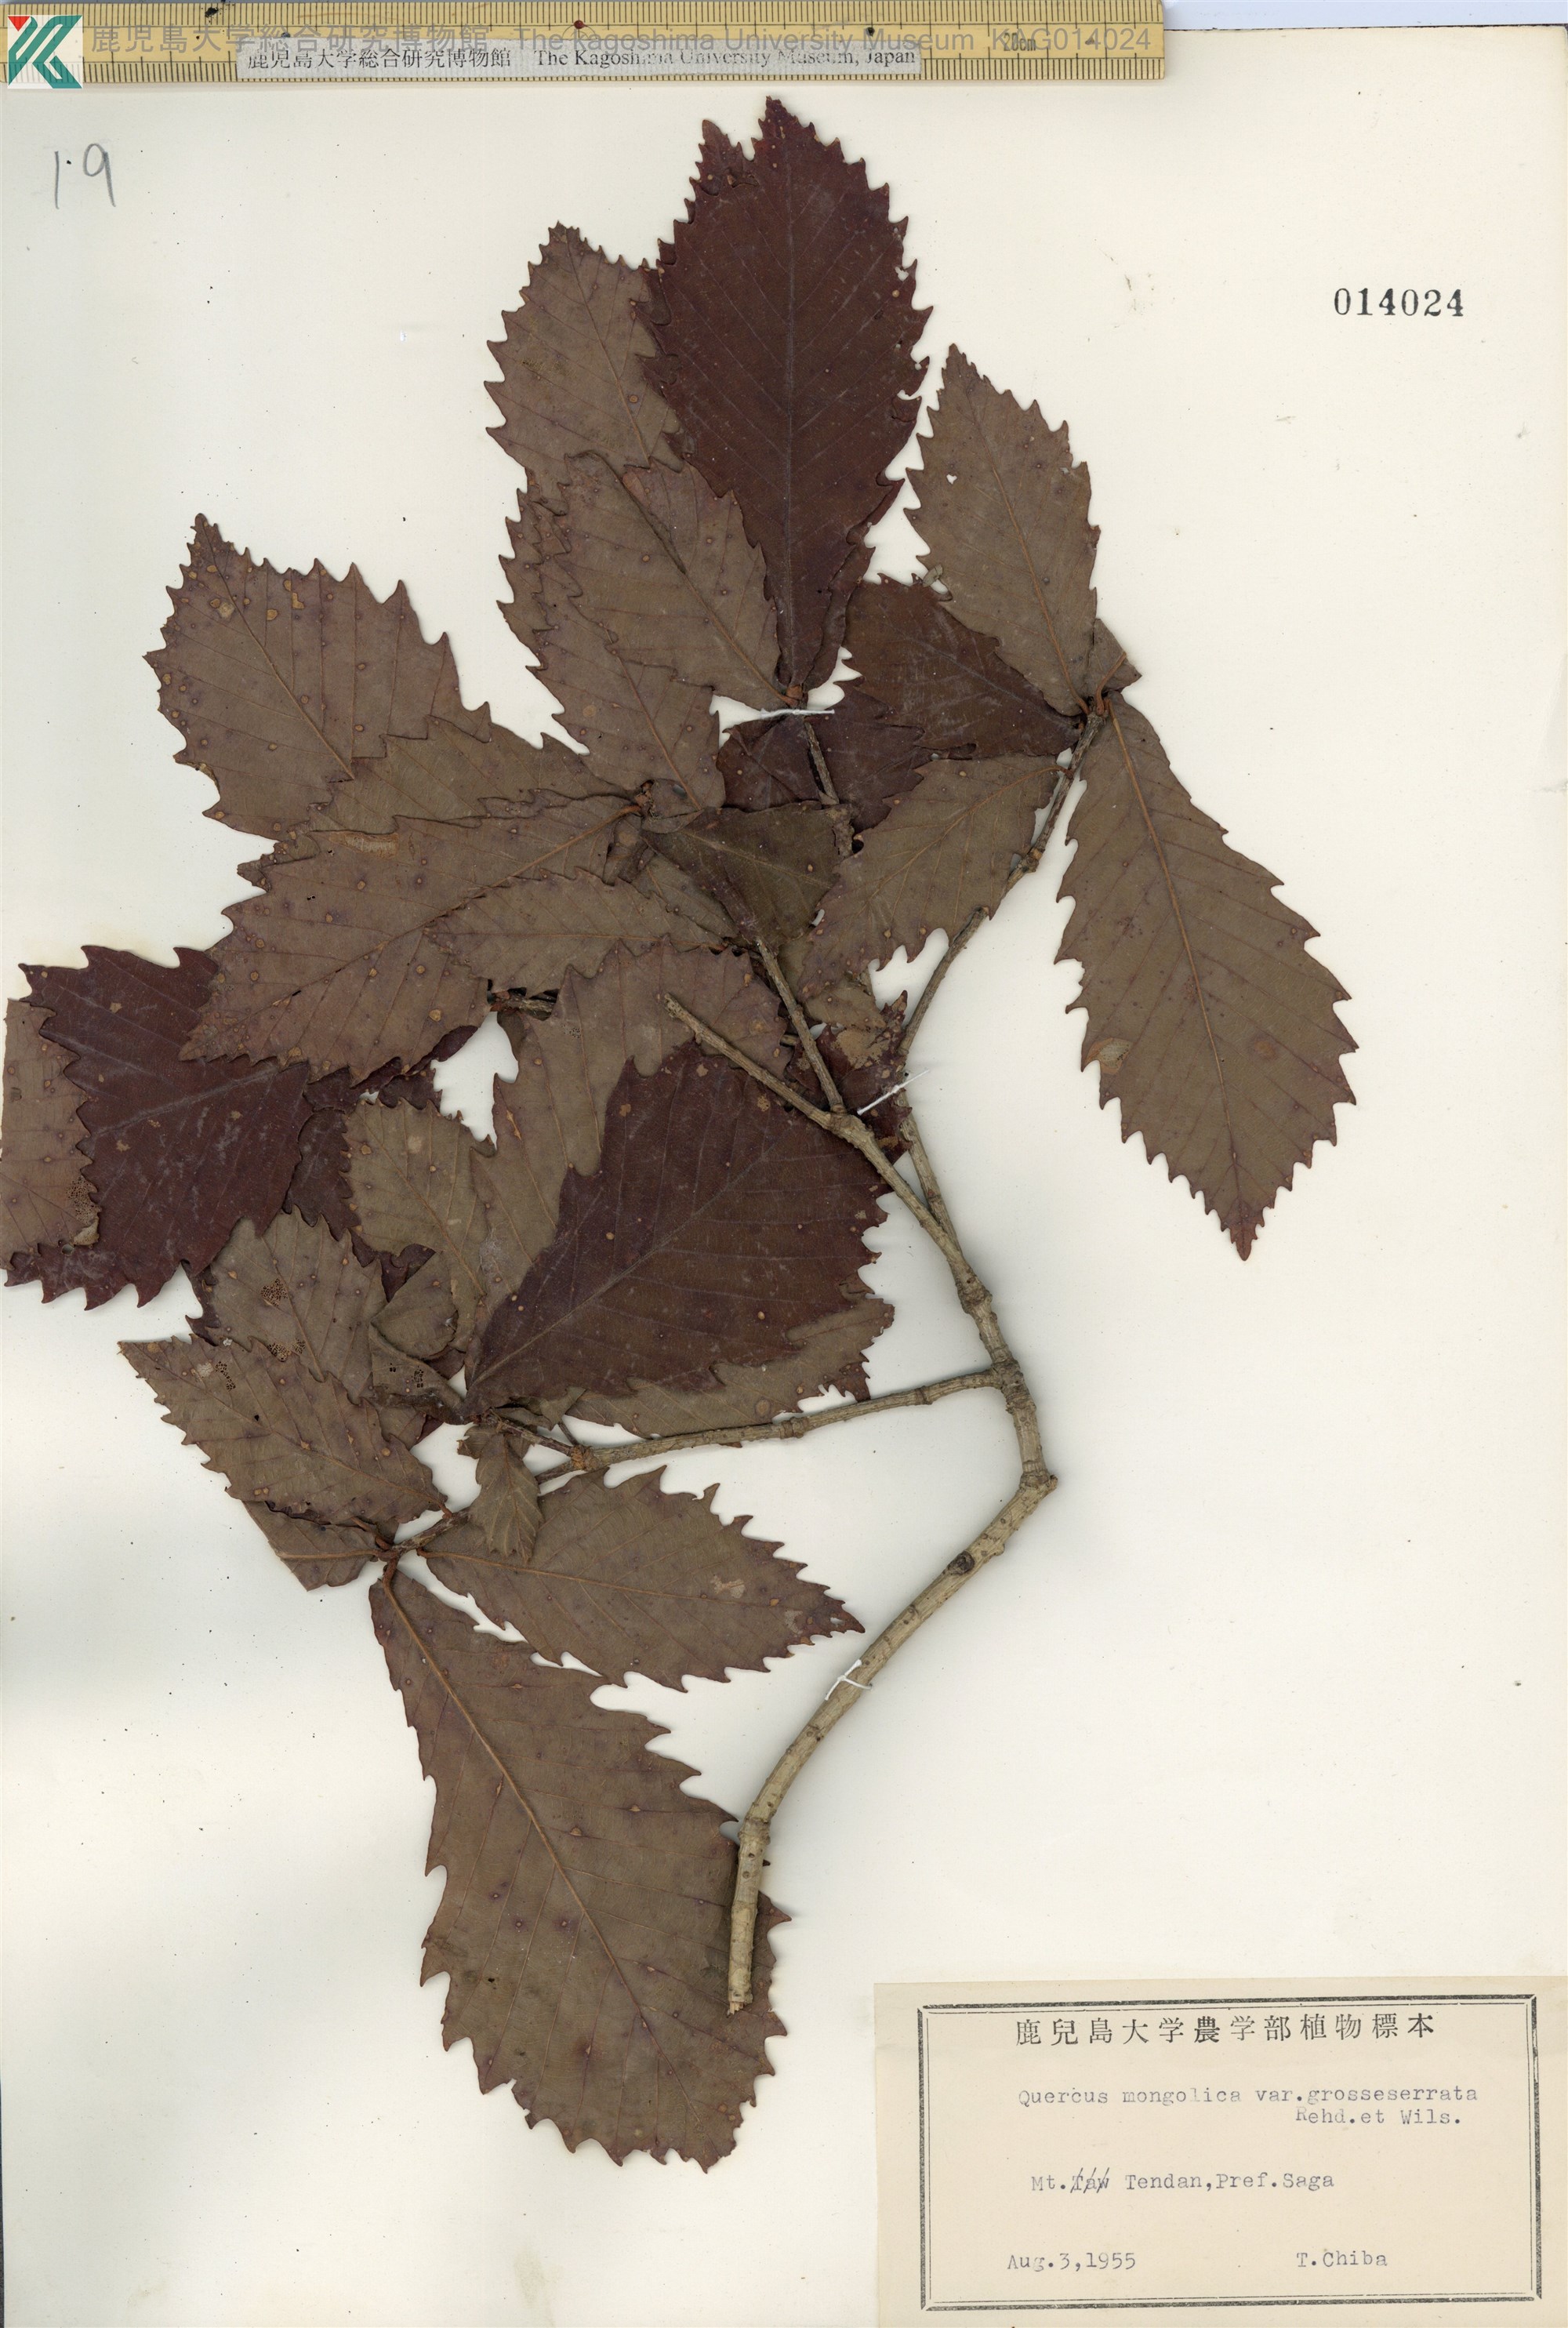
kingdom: Plantae
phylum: Tracheophyta
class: Magnoliopsida
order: Fagales
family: Fagaceae
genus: Quercus
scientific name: Quercus crispula
